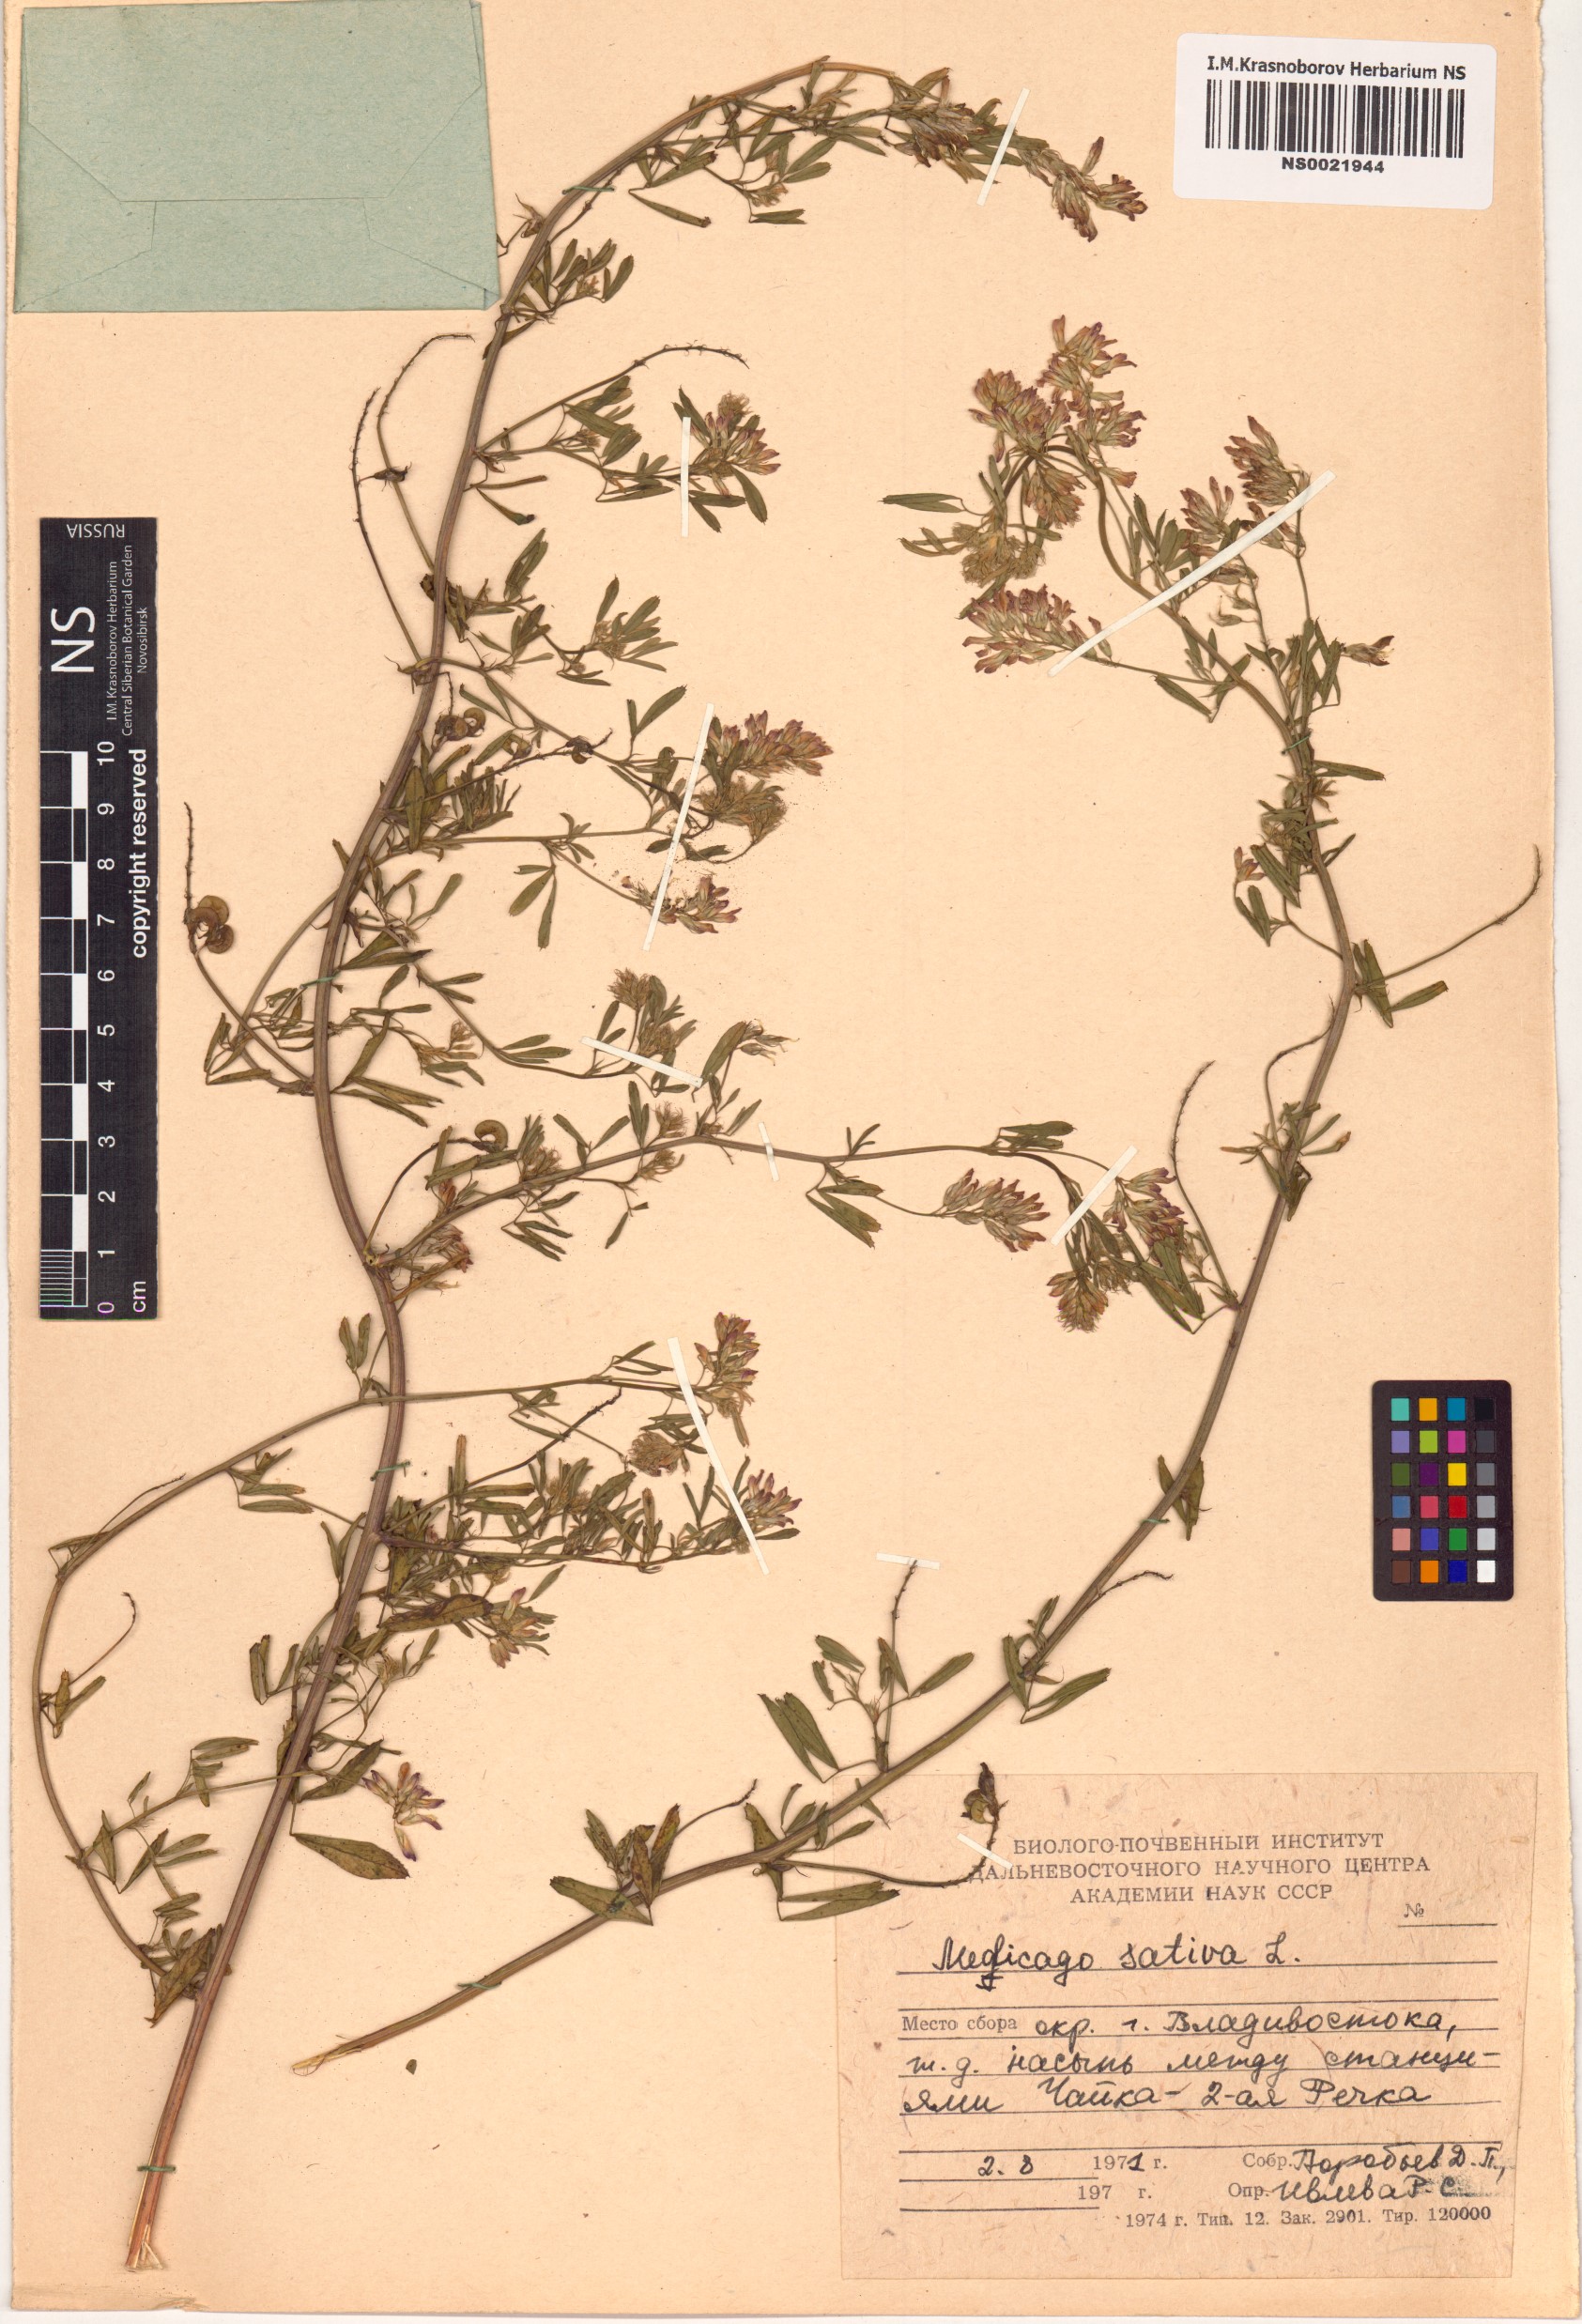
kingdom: Plantae
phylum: Tracheophyta
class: Magnoliopsida
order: Fabales
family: Fabaceae
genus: Medicago
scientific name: Medicago sativa
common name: Alfalfa
